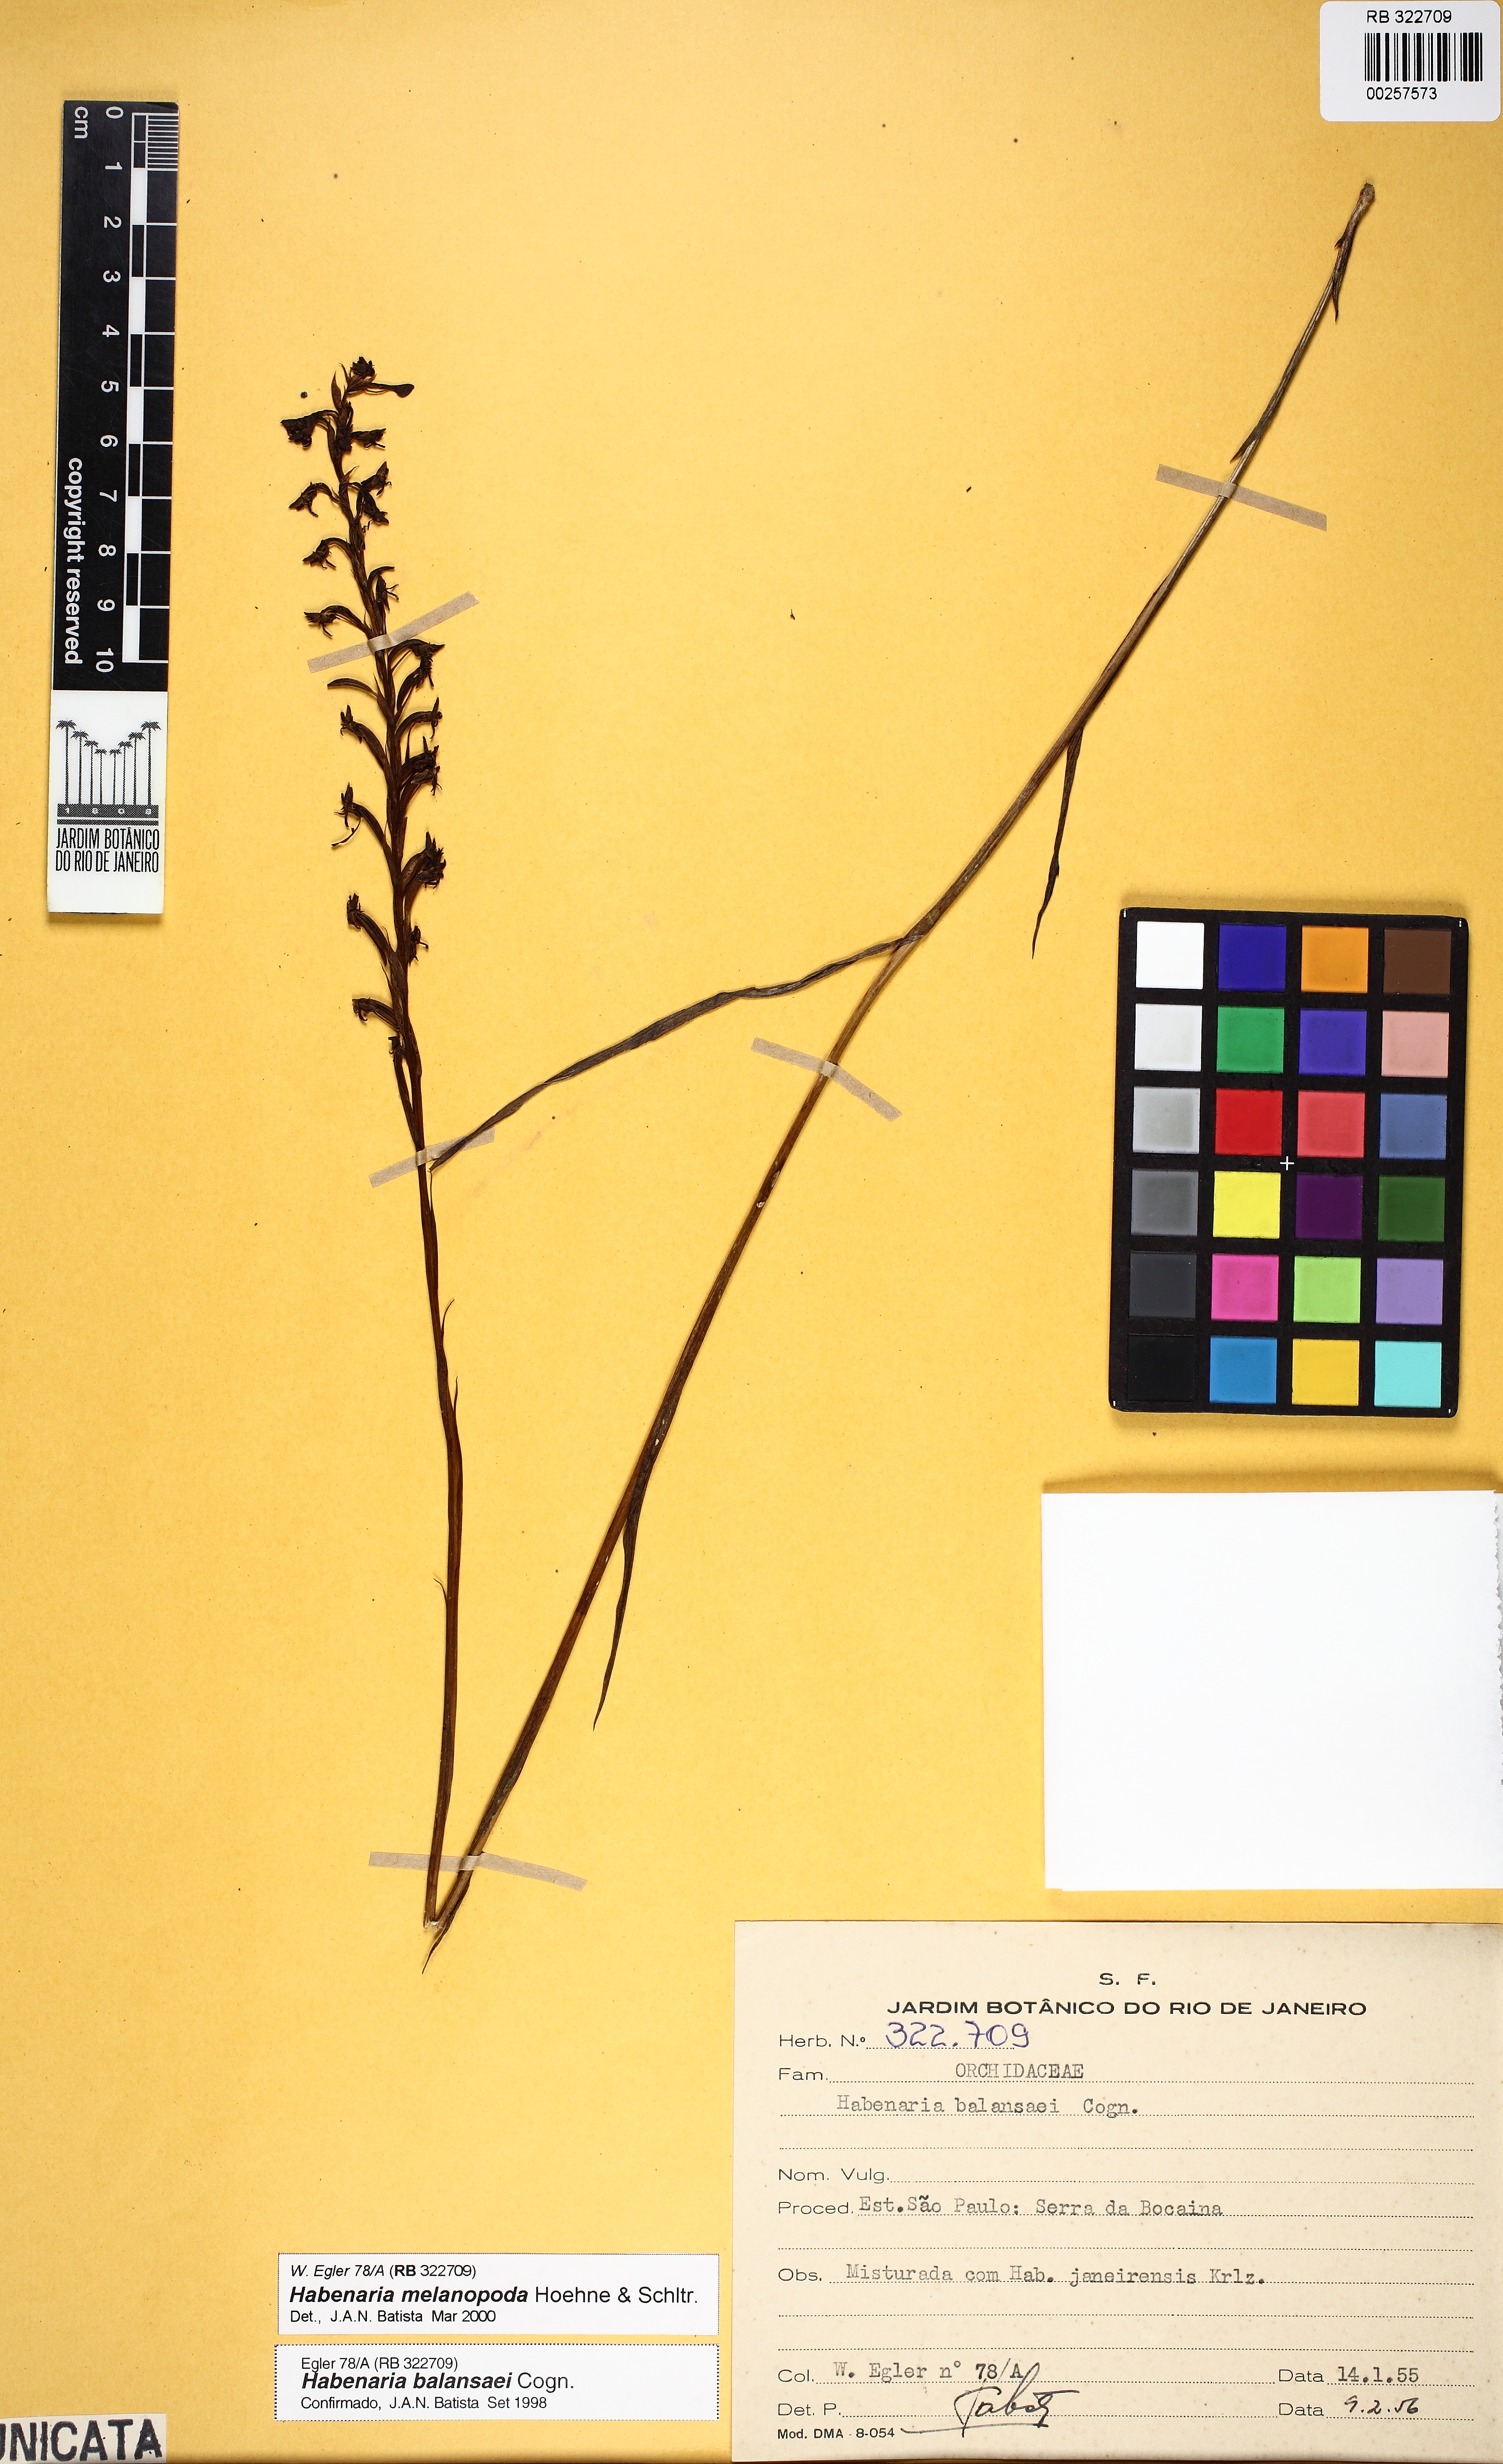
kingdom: Plantae
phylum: Tracheophyta
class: Liliopsida
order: Asparagales
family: Orchidaceae
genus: Habenaria
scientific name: Habenaria alpestris
